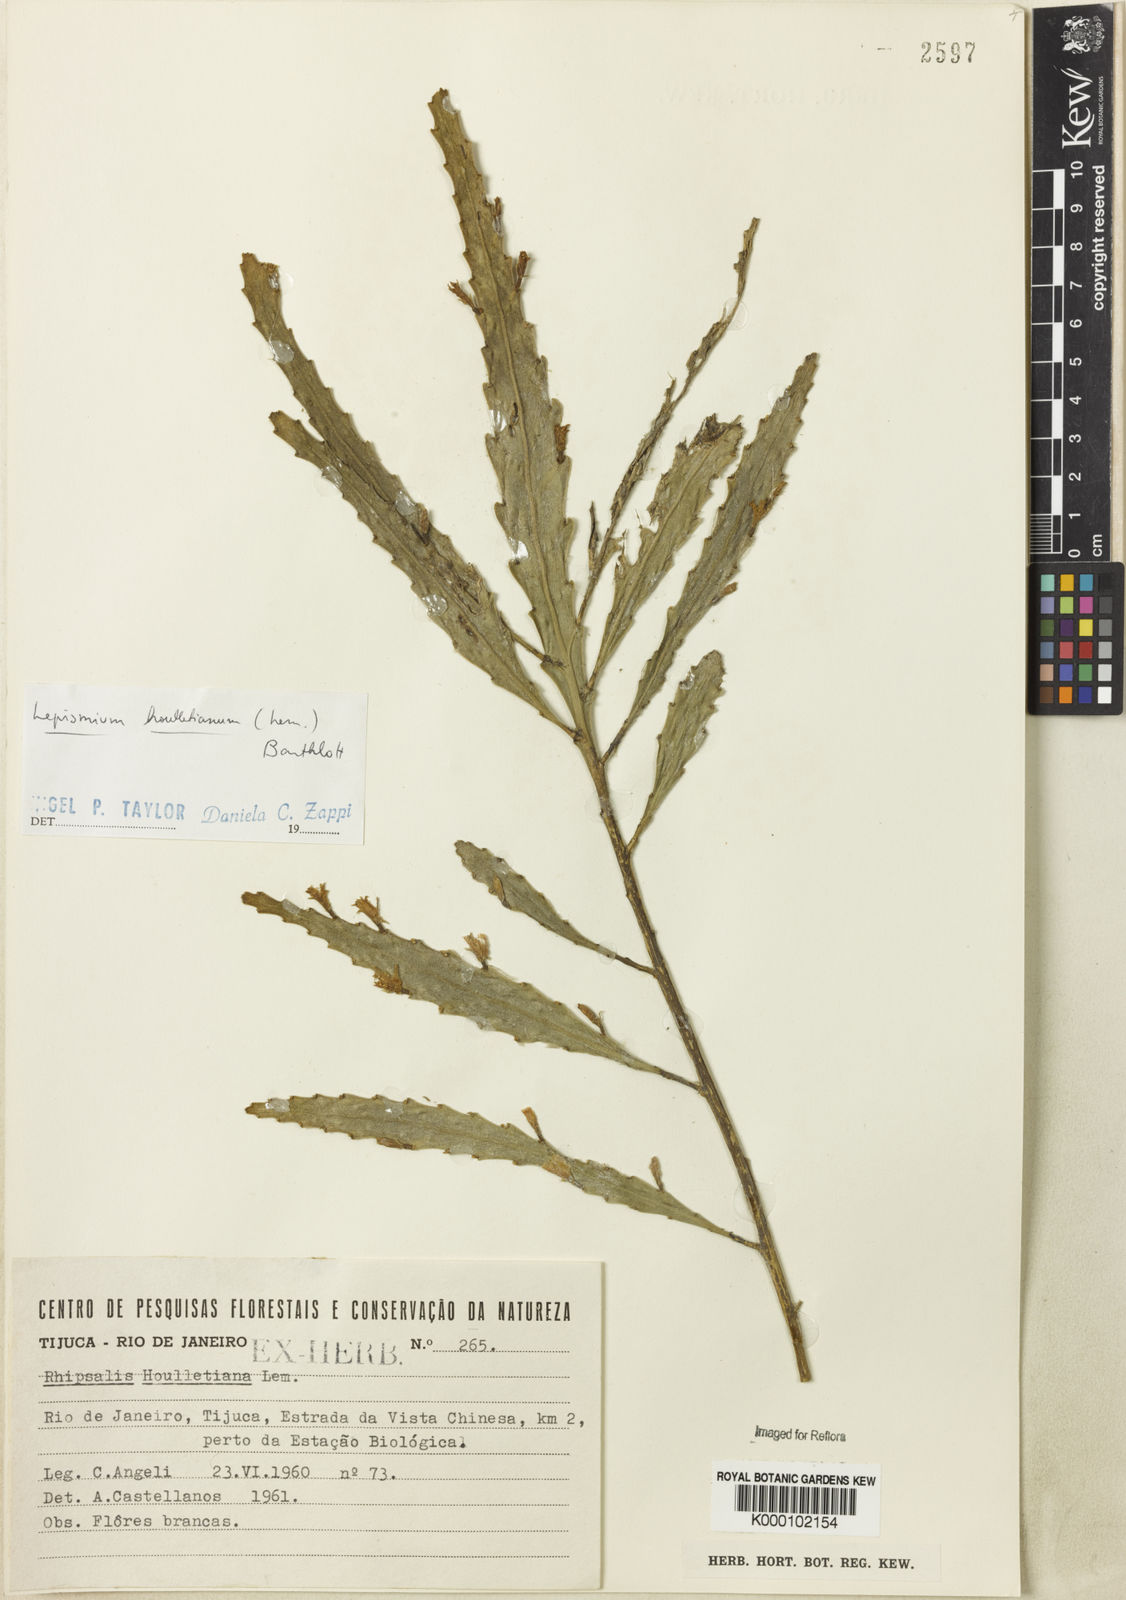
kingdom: Plantae
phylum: Tracheophyta
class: Magnoliopsida
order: Caryophyllales
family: Cactaceae
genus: Lepismium
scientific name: Lepismium houlletianum
